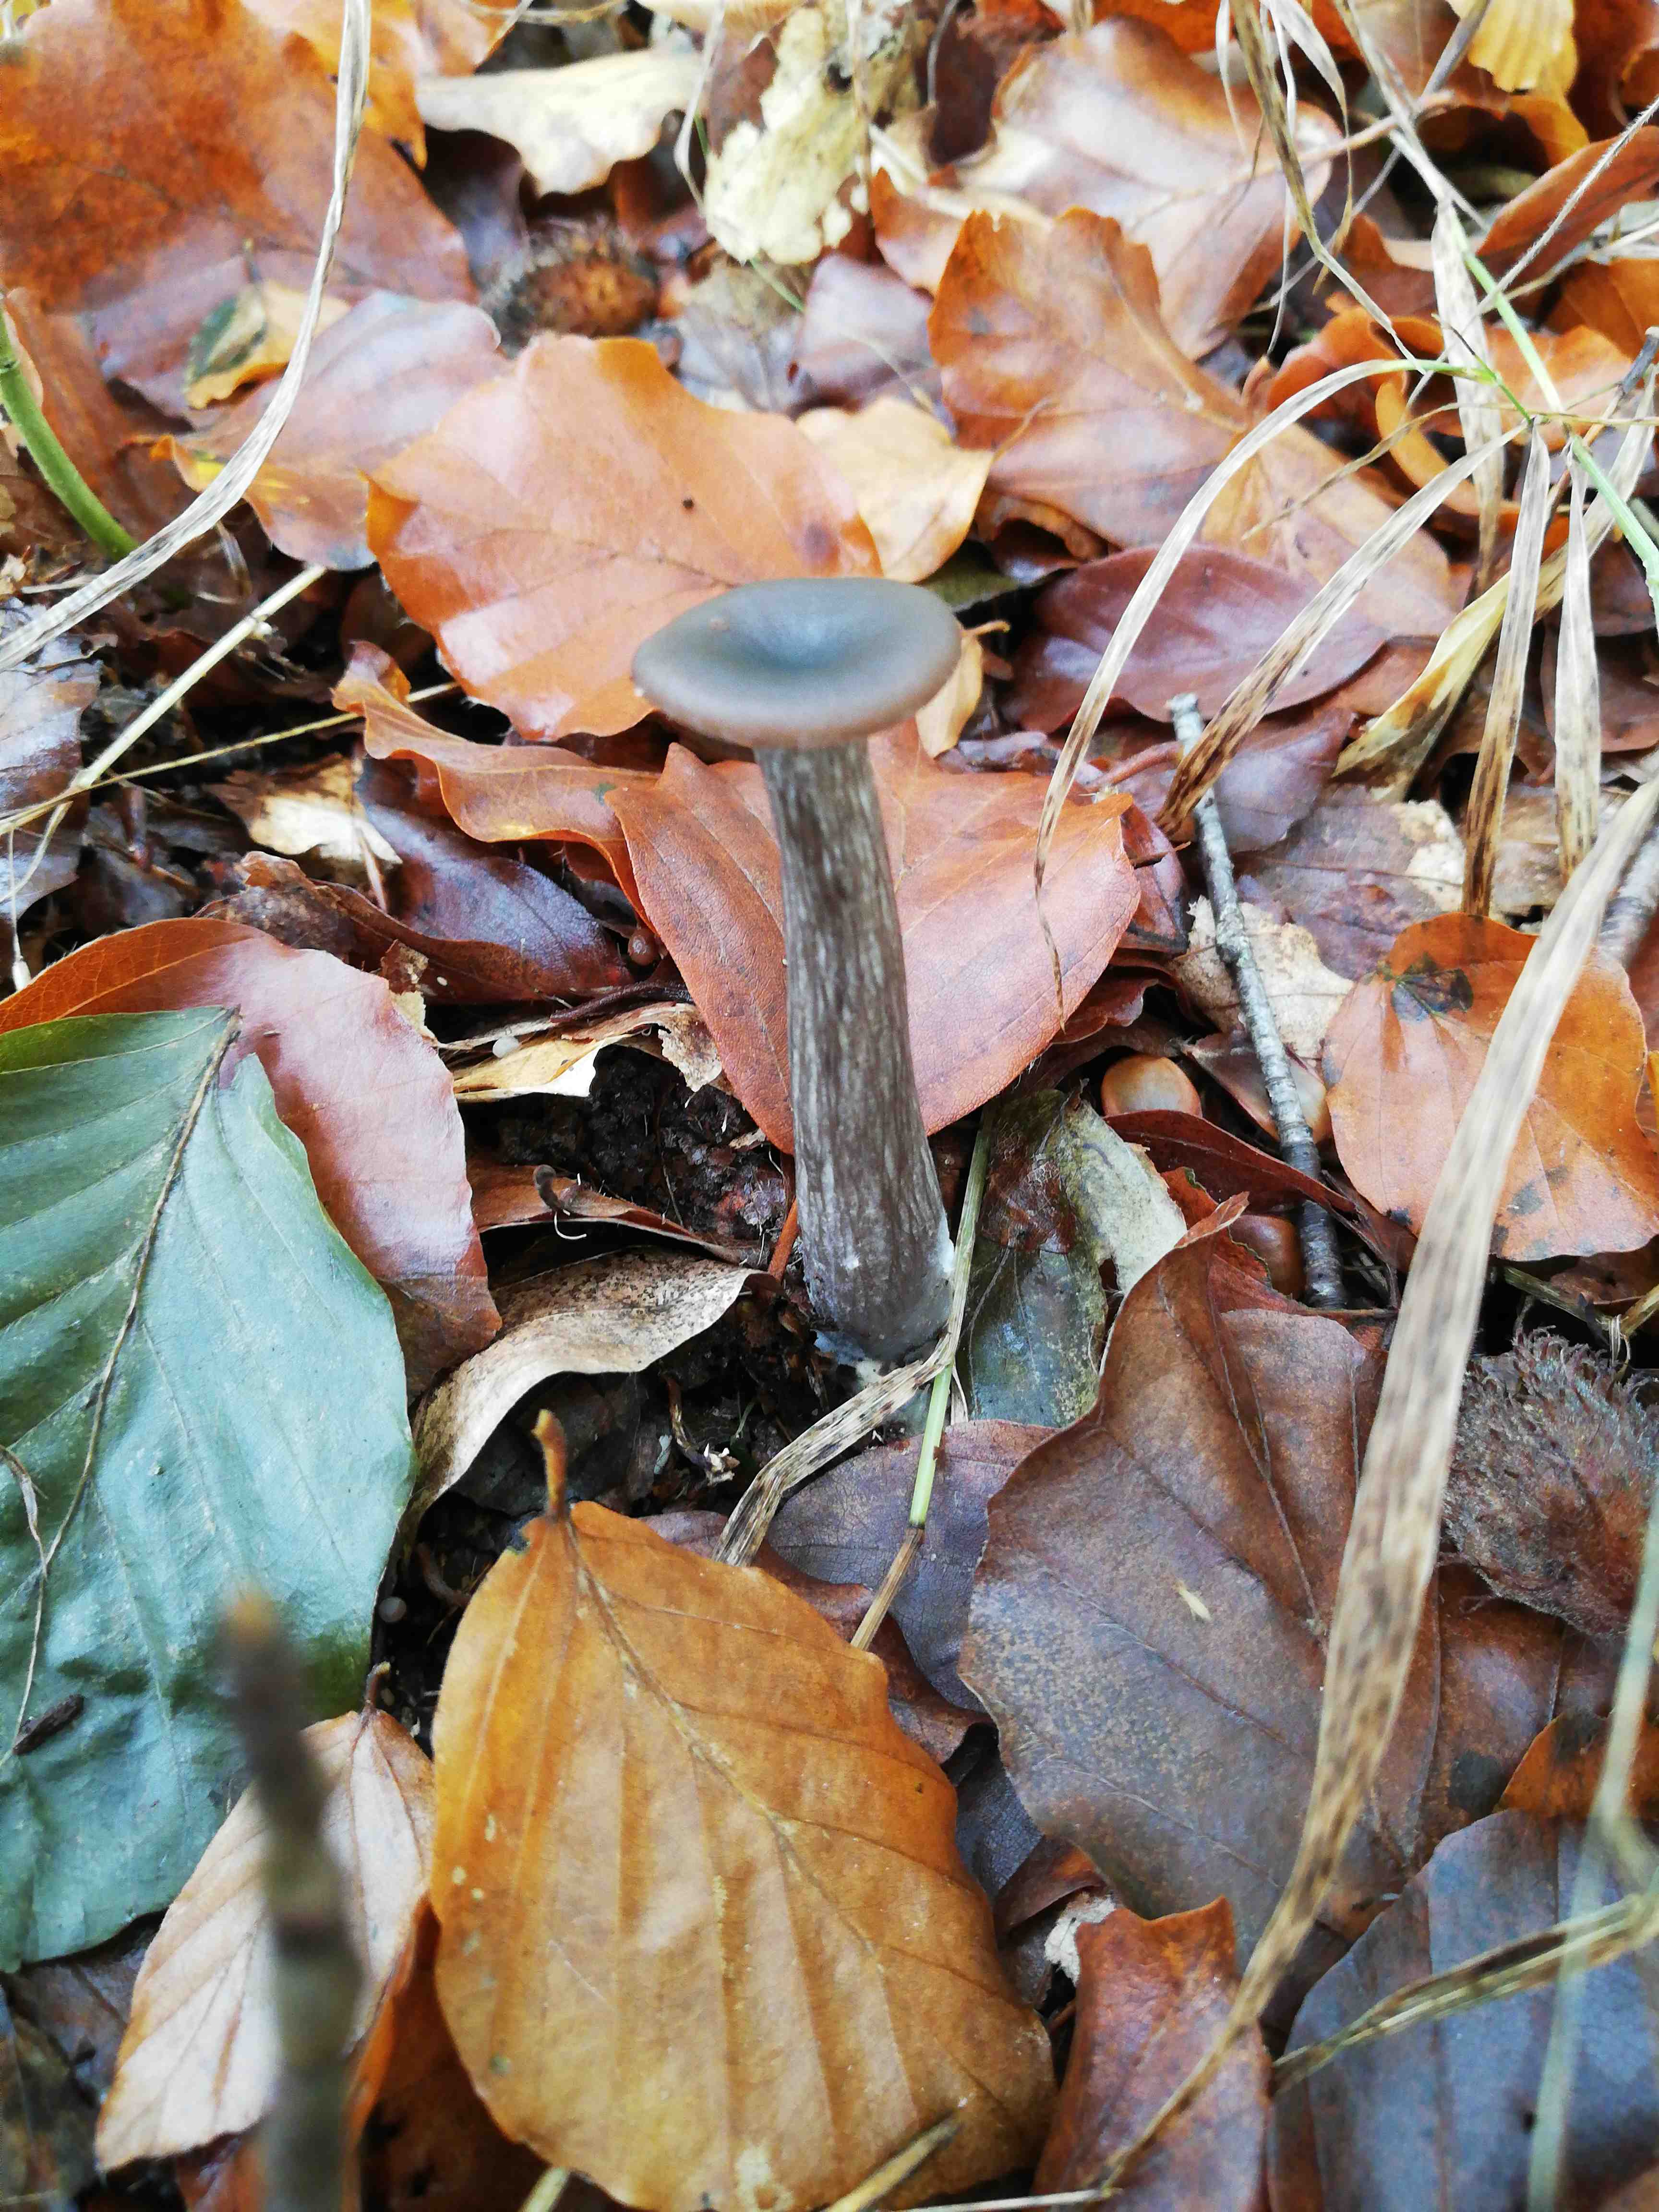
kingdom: Fungi
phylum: Basidiomycota
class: Agaricomycetes
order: Agaricales
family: Pseudoclitocybaceae
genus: Pseudoclitocybe
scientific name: Pseudoclitocybe cyathiformis
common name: almindelig bægertragthat
